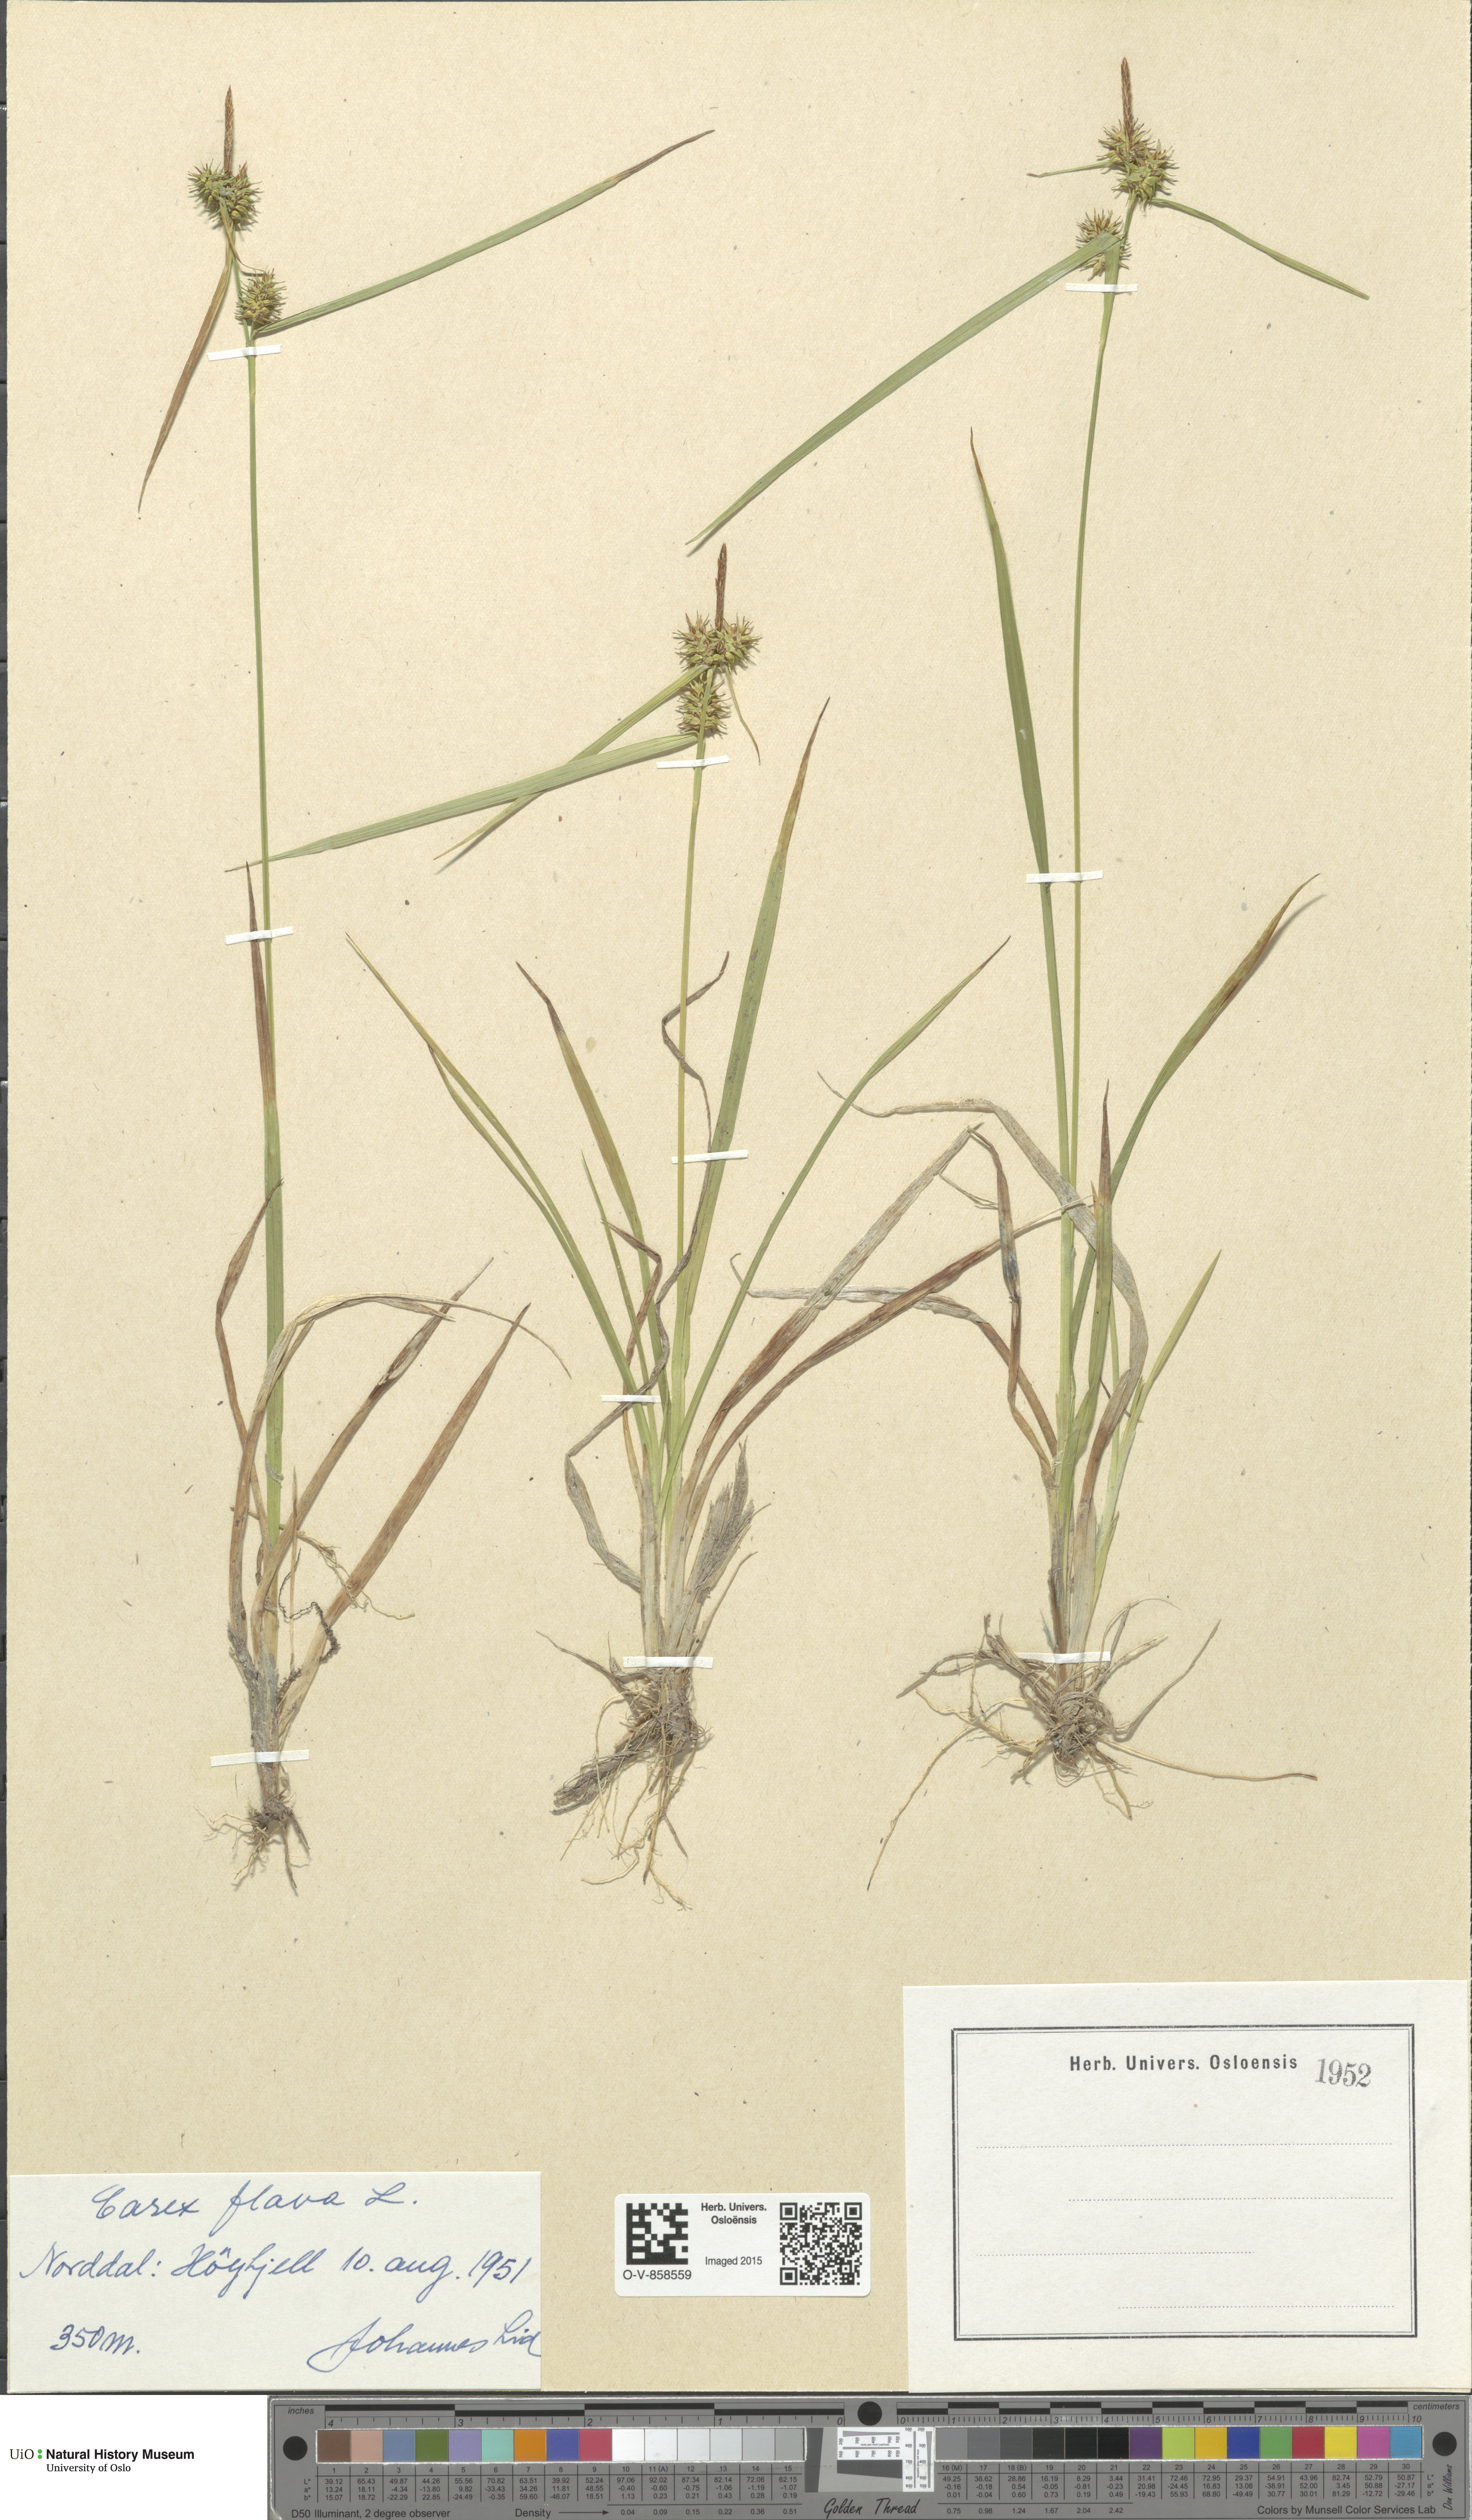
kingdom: Plantae
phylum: Tracheophyta
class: Liliopsida
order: Poales
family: Cyperaceae
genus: Carex
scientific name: Carex flava
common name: Large yellow-sedge
